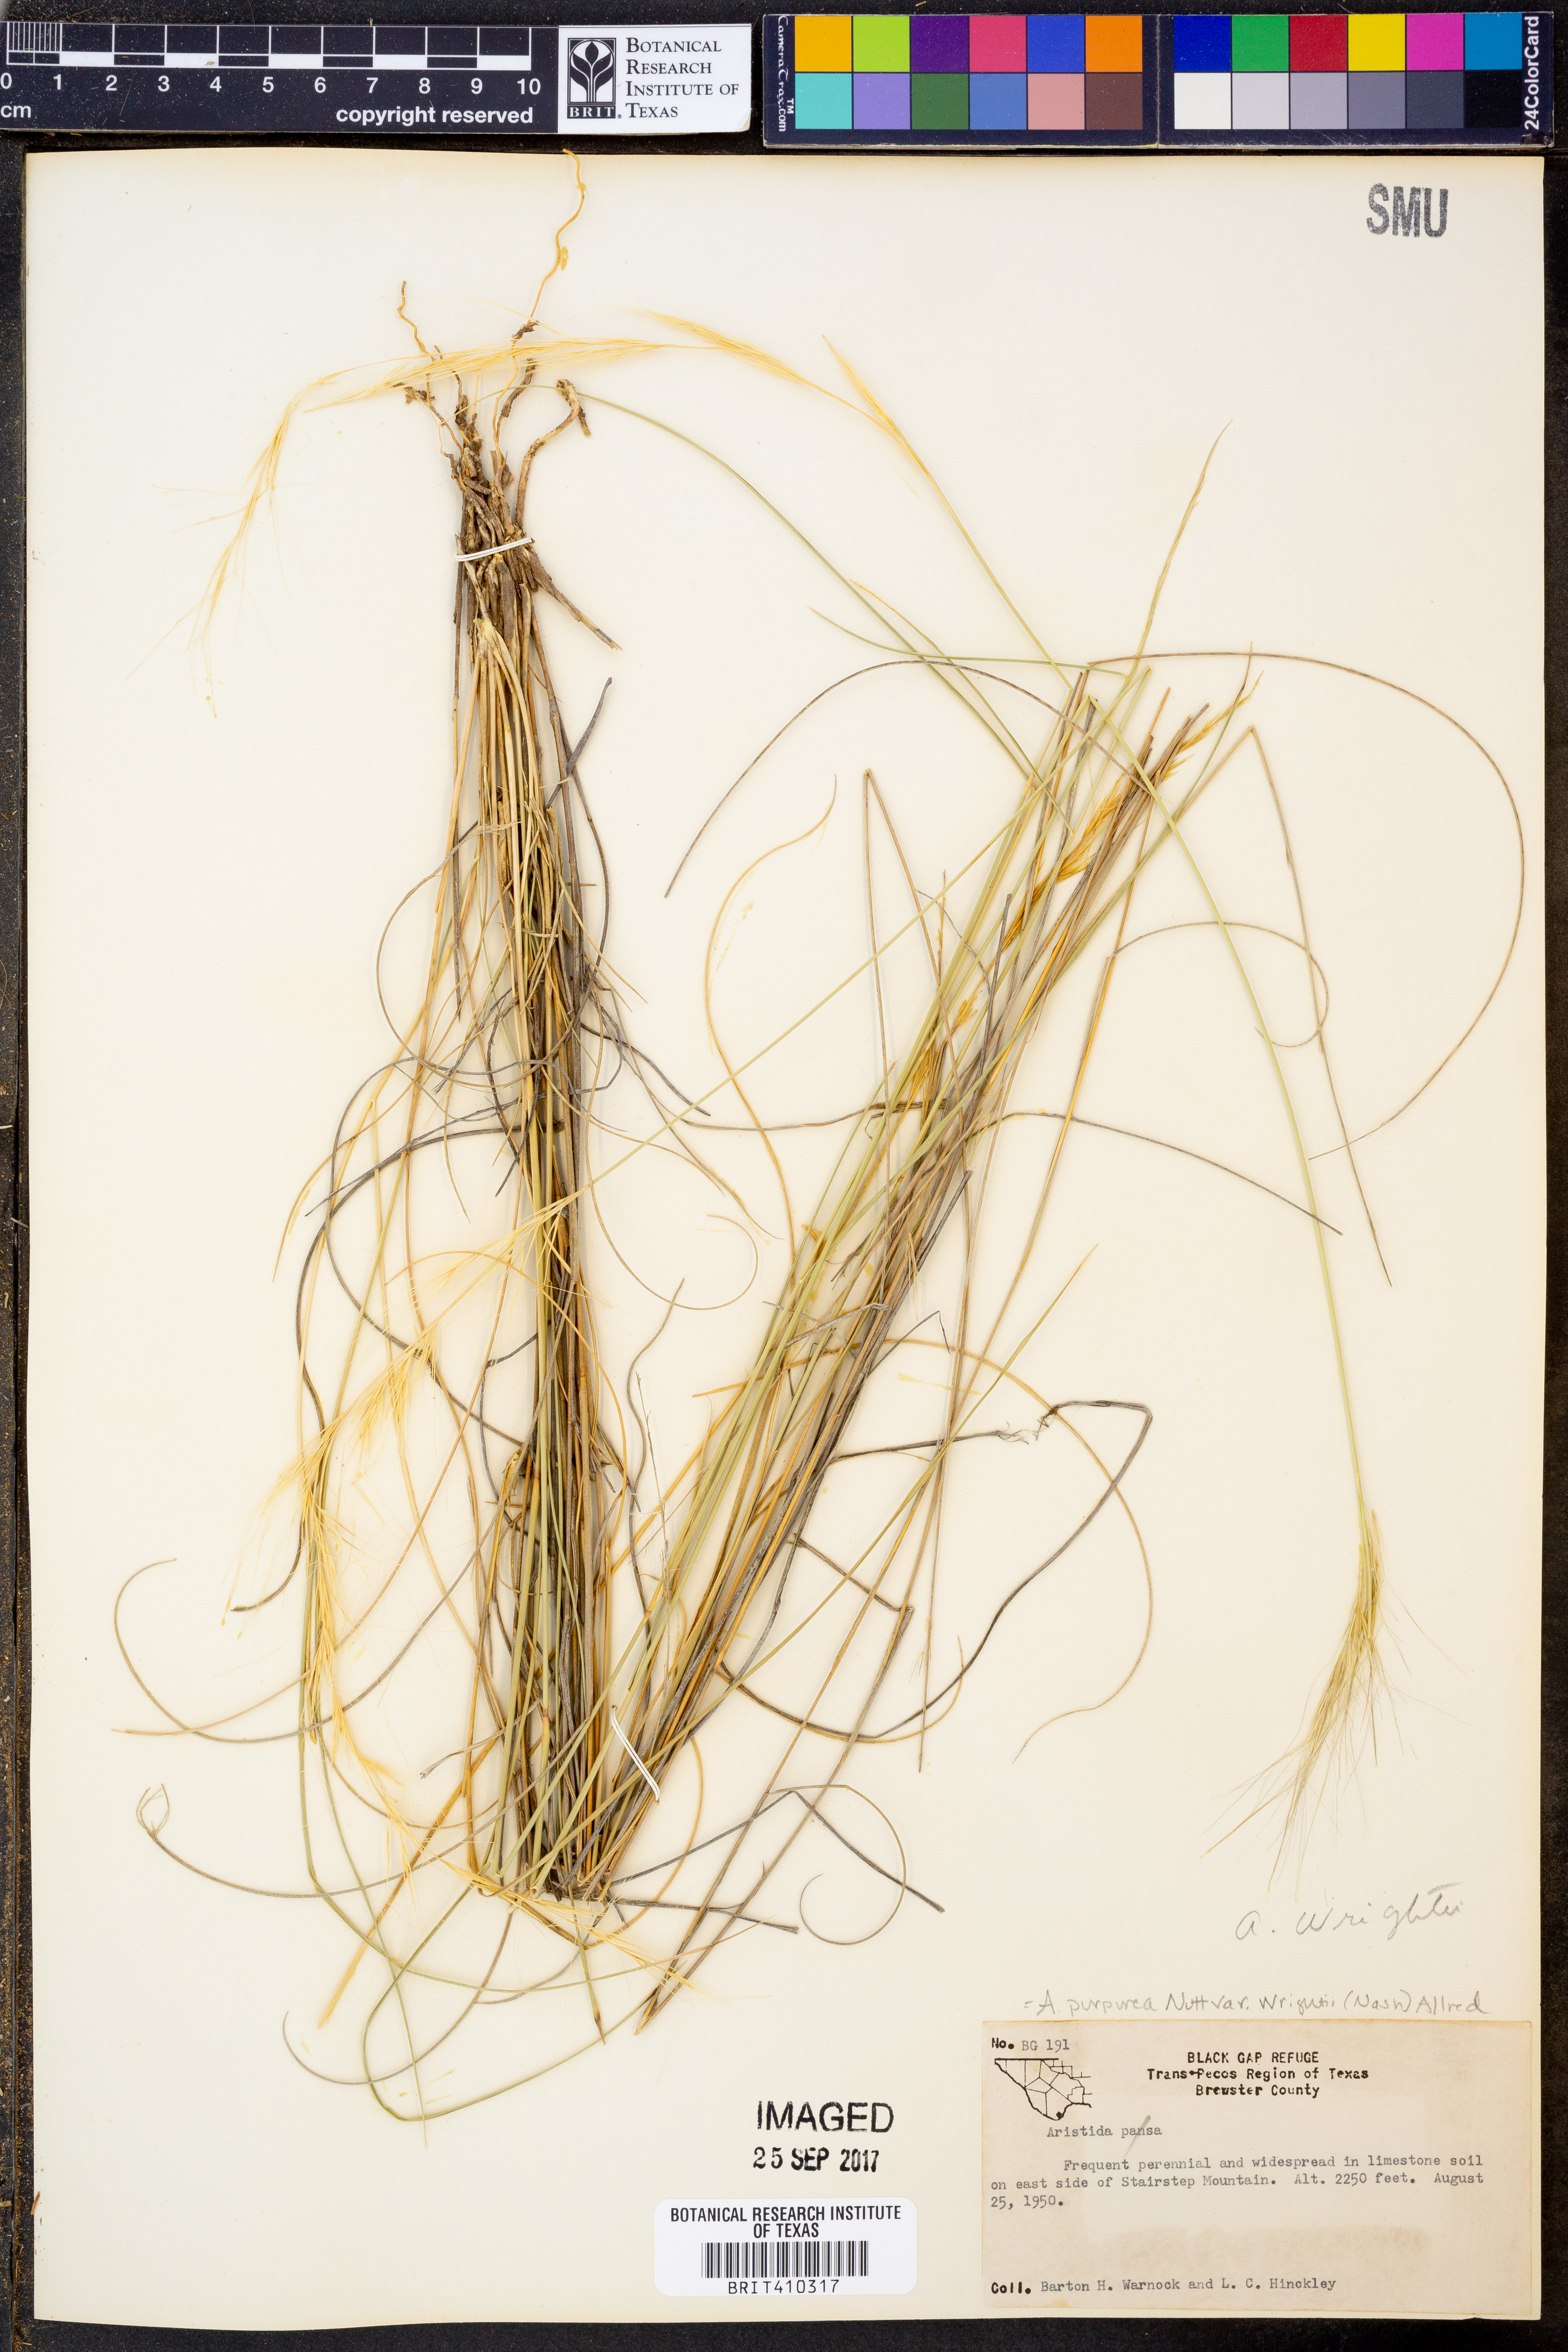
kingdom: Plantae
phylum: Tracheophyta
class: Liliopsida
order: Poales
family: Poaceae
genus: Aristida
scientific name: Aristida wrightii
